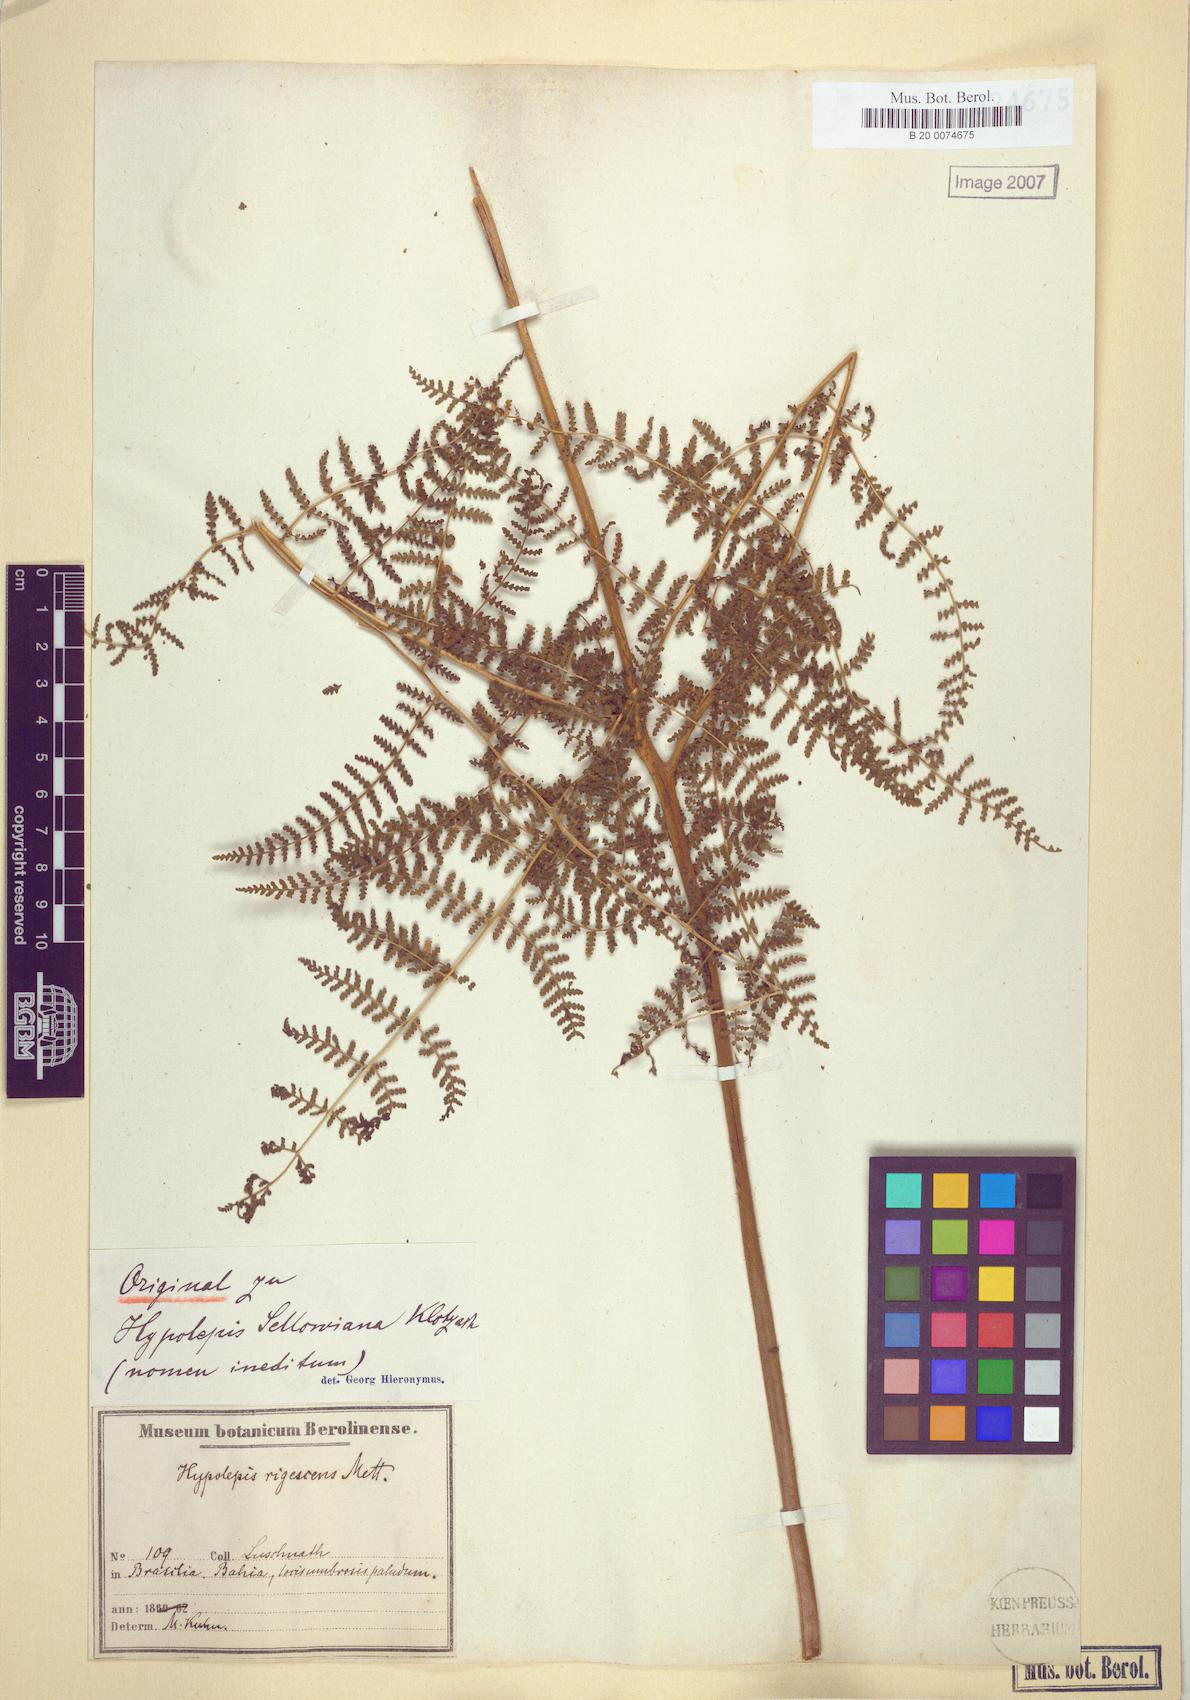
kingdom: Plantae
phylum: Tracheophyta
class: Polypodiopsida
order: Polypodiales
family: Dennstaedtiaceae
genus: Hypolepis
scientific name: Hypolepis rigescens
